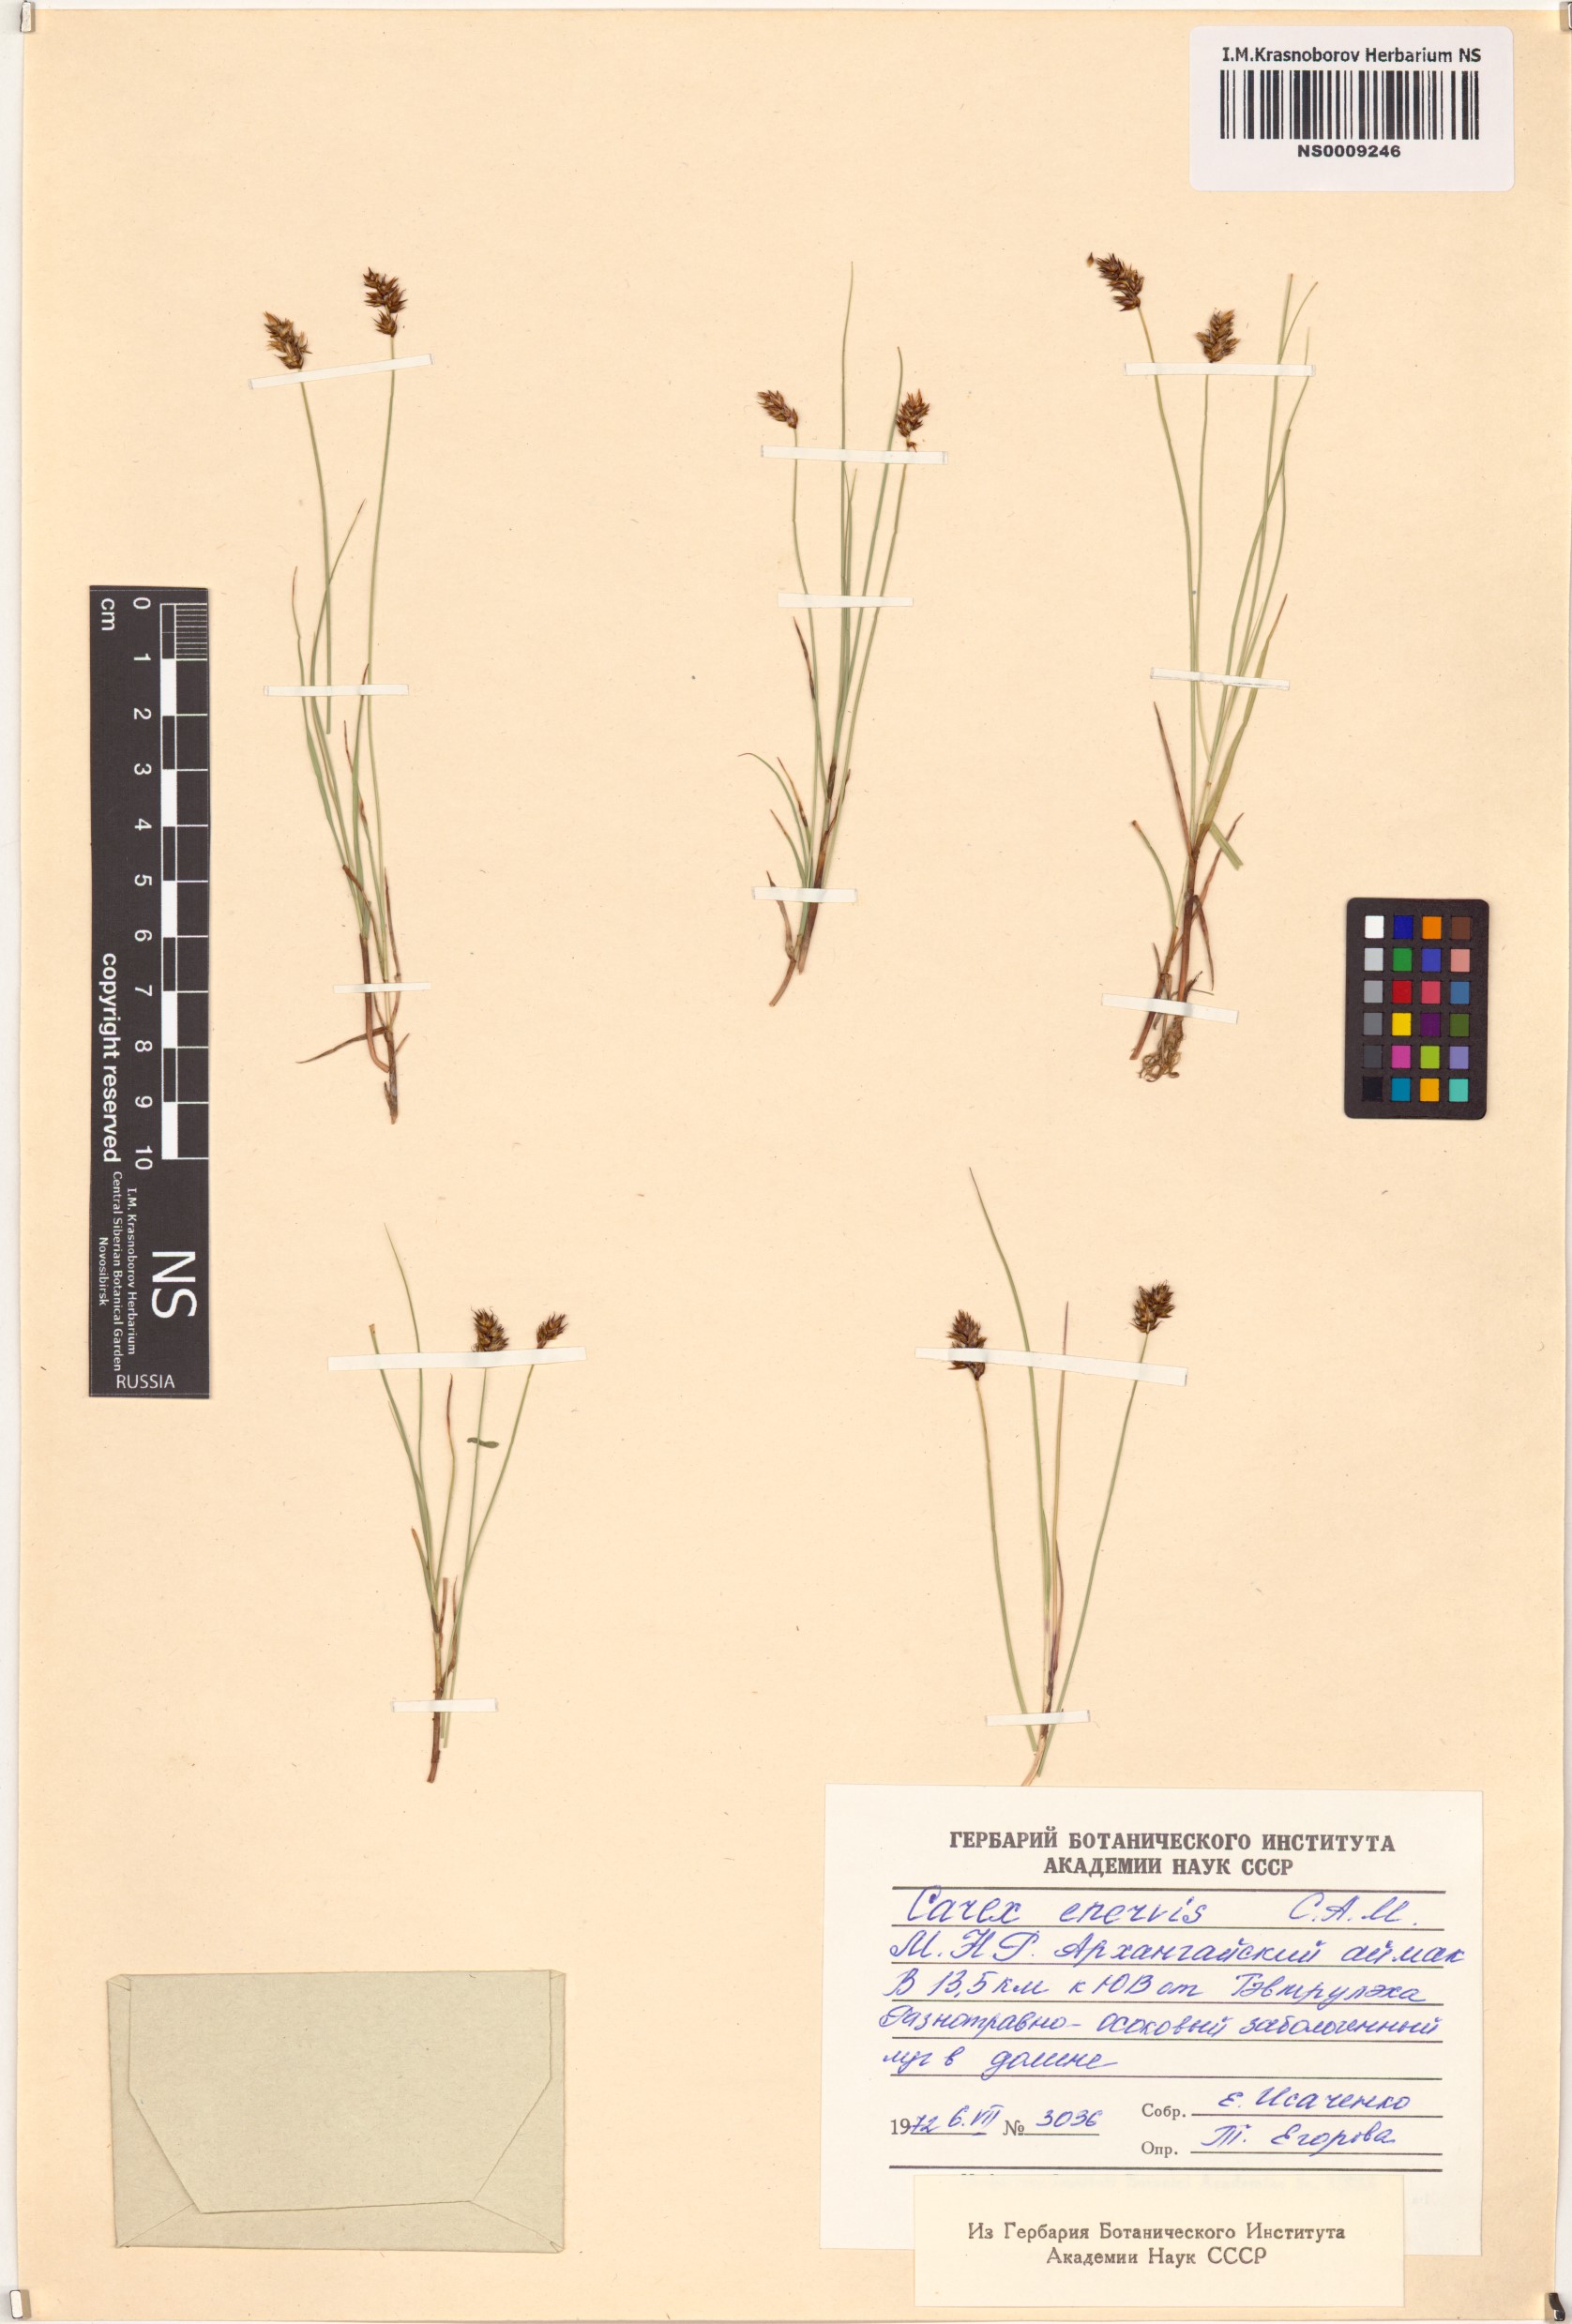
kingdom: Plantae
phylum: Tracheophyta
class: Liliopsida
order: Poales
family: Cyperaceae
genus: Carex
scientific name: Carex enervis
